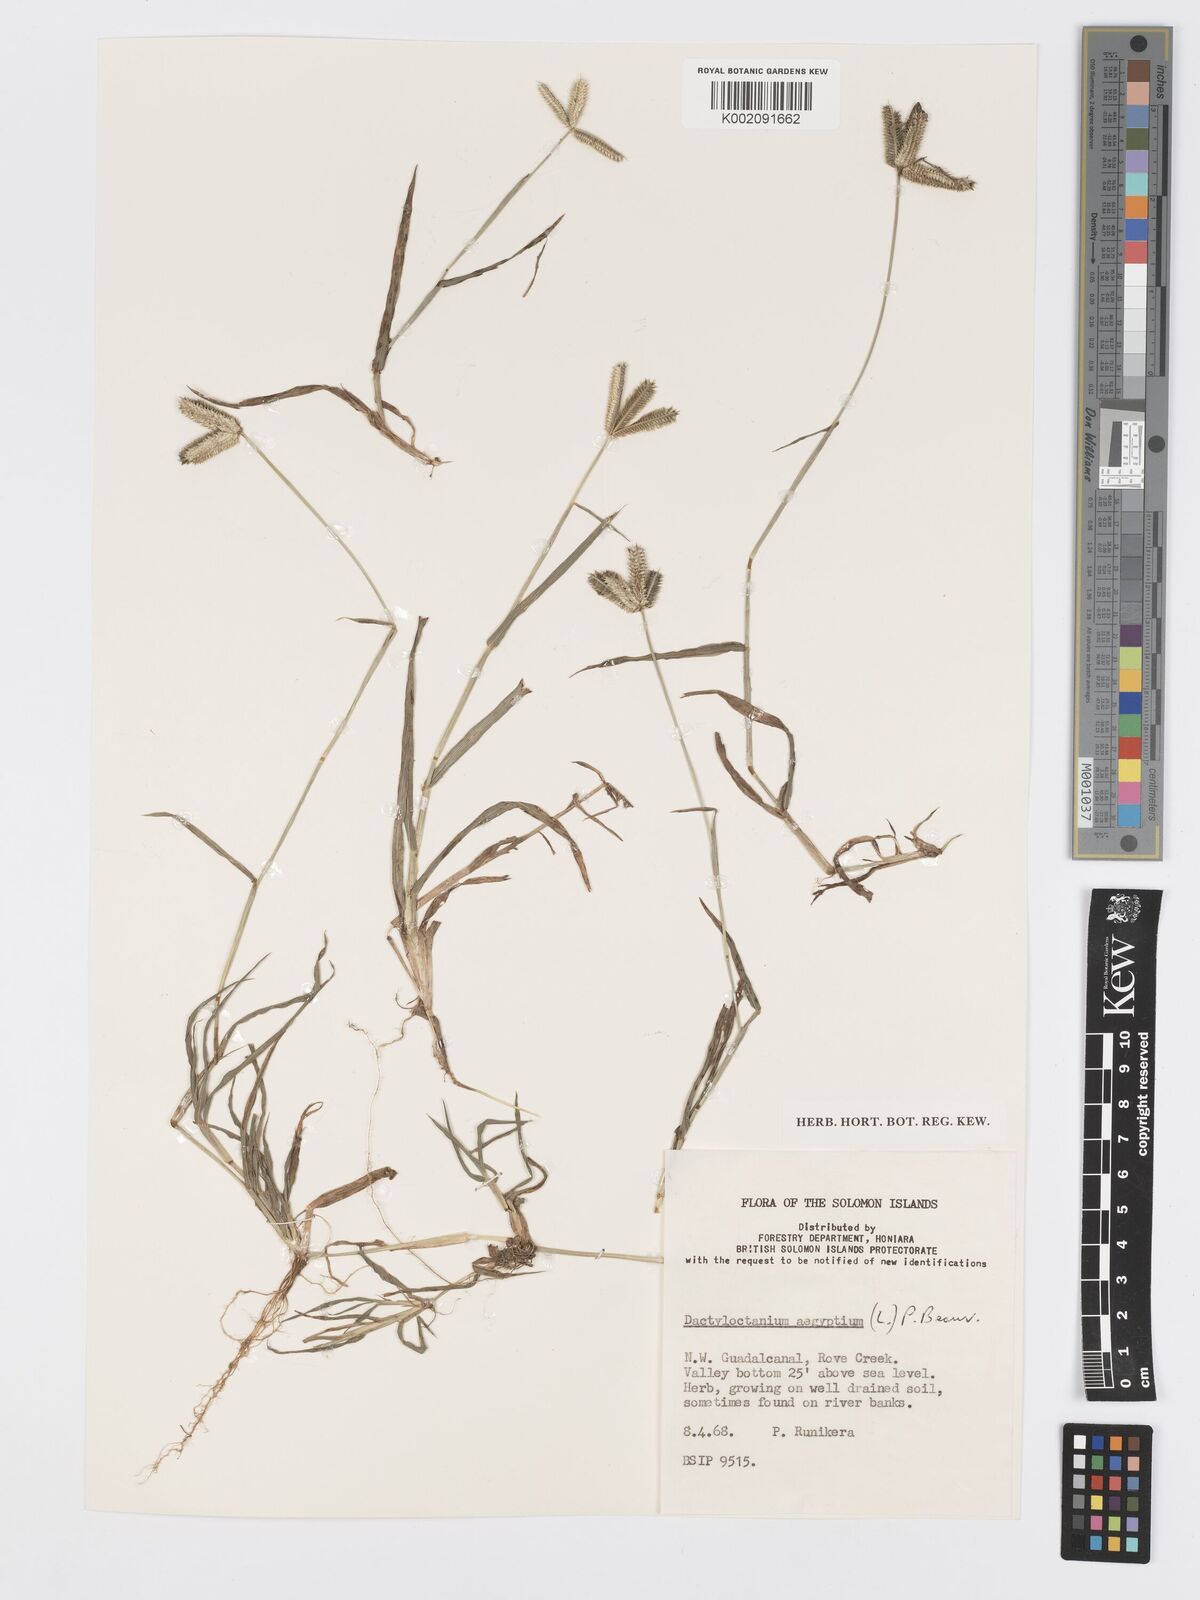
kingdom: Plantae
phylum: Tracheophyta
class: Liliopsida
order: Poales
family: Poaceae
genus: Dactyloctenium
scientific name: Dactyloctenium aegyptium
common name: Egyptian grass
